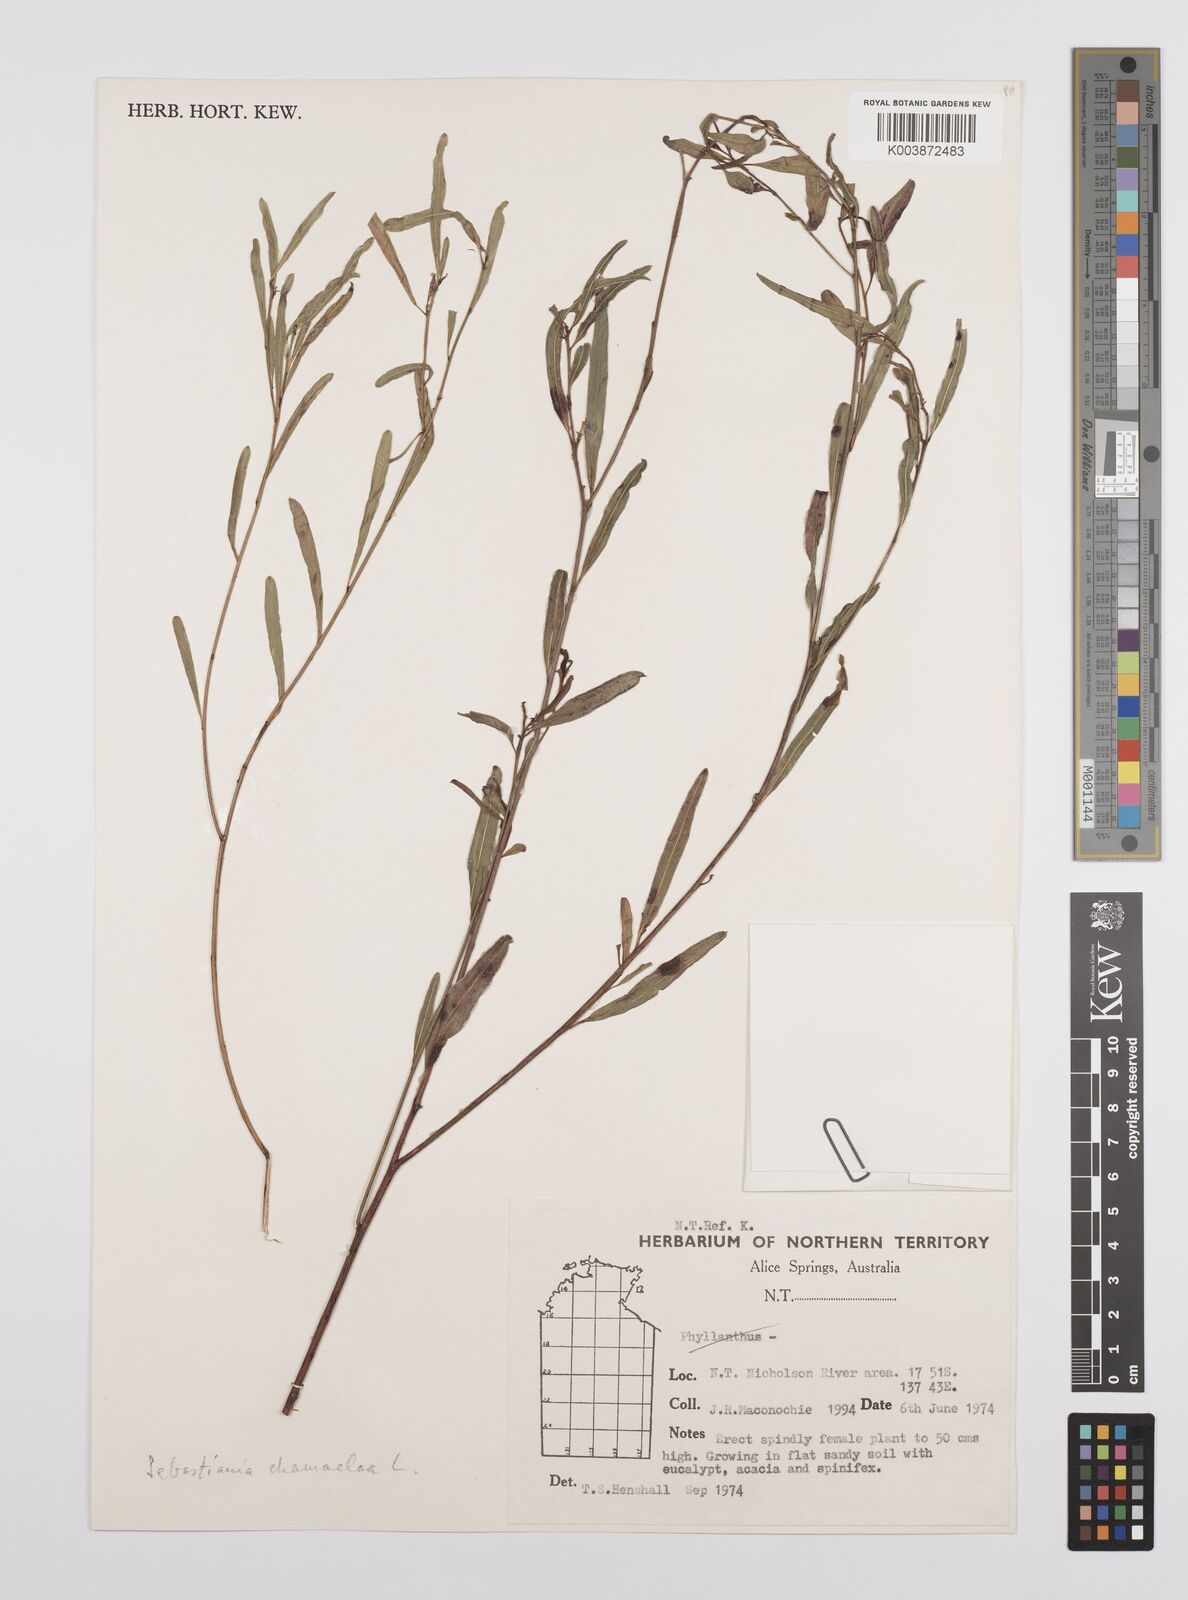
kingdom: Plantae
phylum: Tracheophyta
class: Magnoliopsida
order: Malpighiales
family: Euphorbiaceae
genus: Microstachys
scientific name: Microstachys chamaelea
